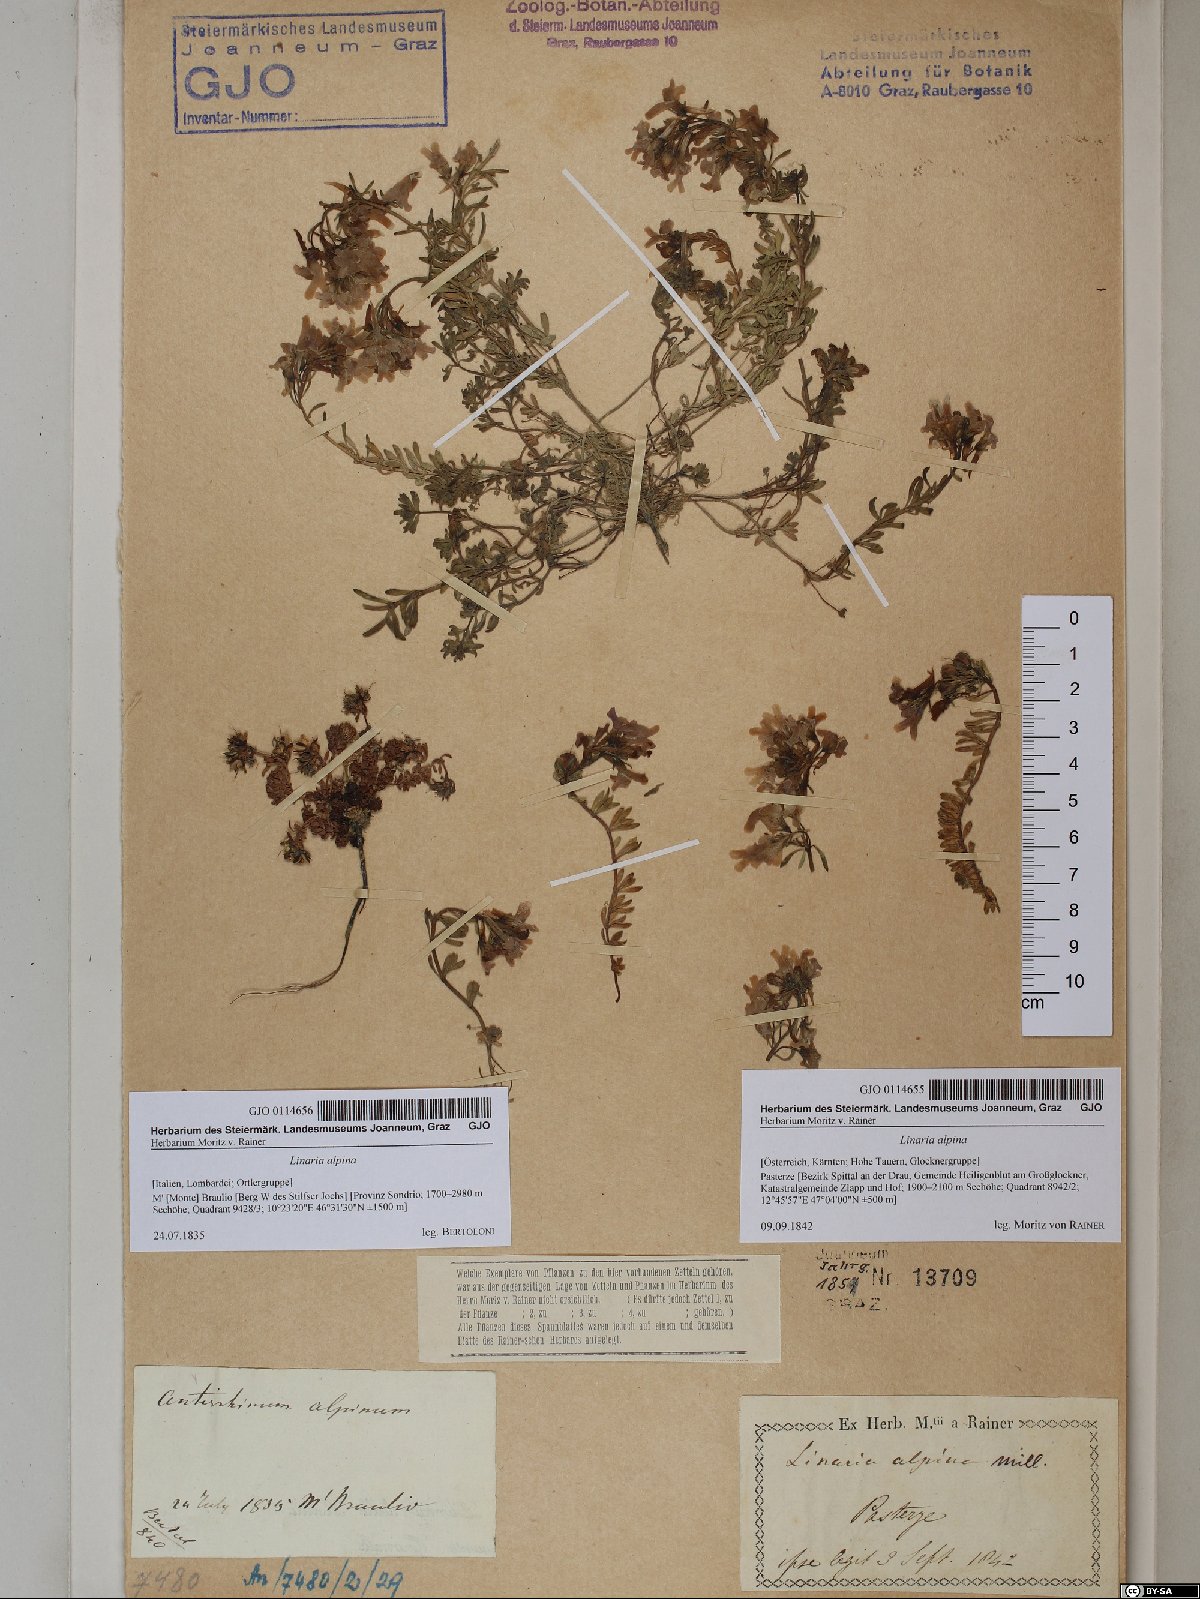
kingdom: Plantae
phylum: Tracheophyta
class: Magnoliopsida
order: Lamiales
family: Plantaginaceae
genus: Linaria
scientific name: Linaria alpina
